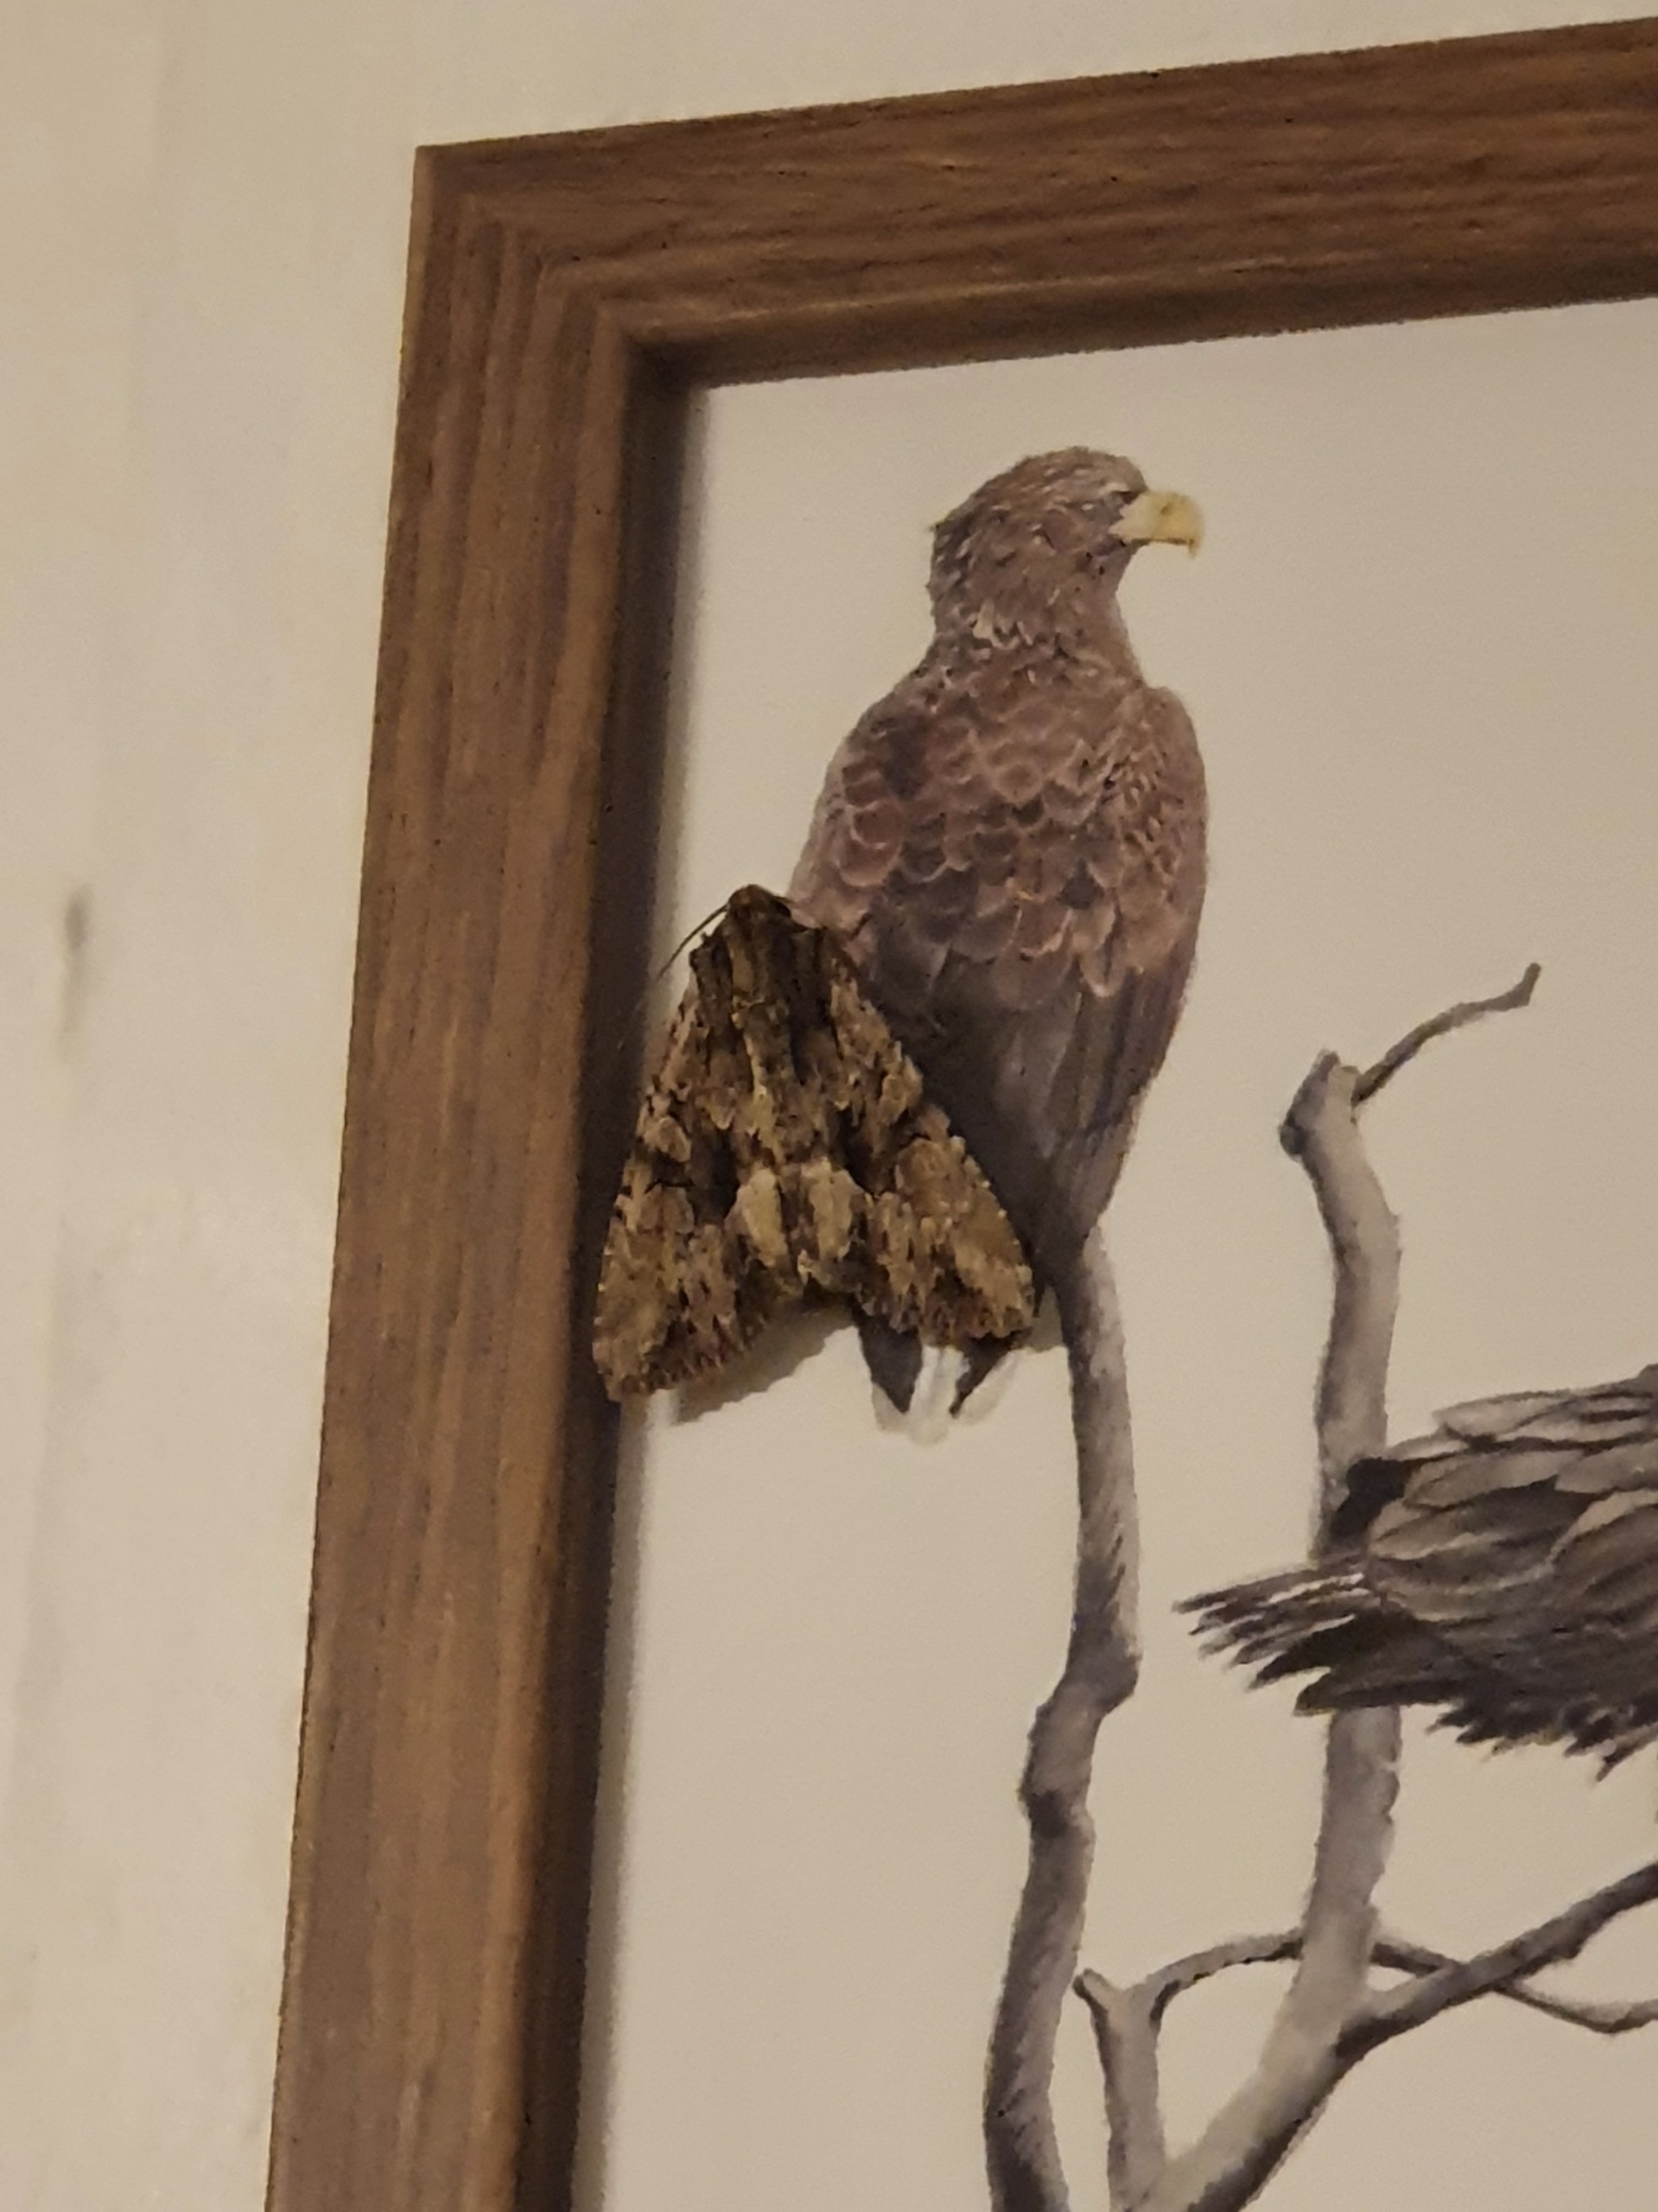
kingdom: Animalia
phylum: Arthropoda
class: Insecta
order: Lepidoptera
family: Noctuidae
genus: Apamea
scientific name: Apamea monoglypha
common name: Jordugle
